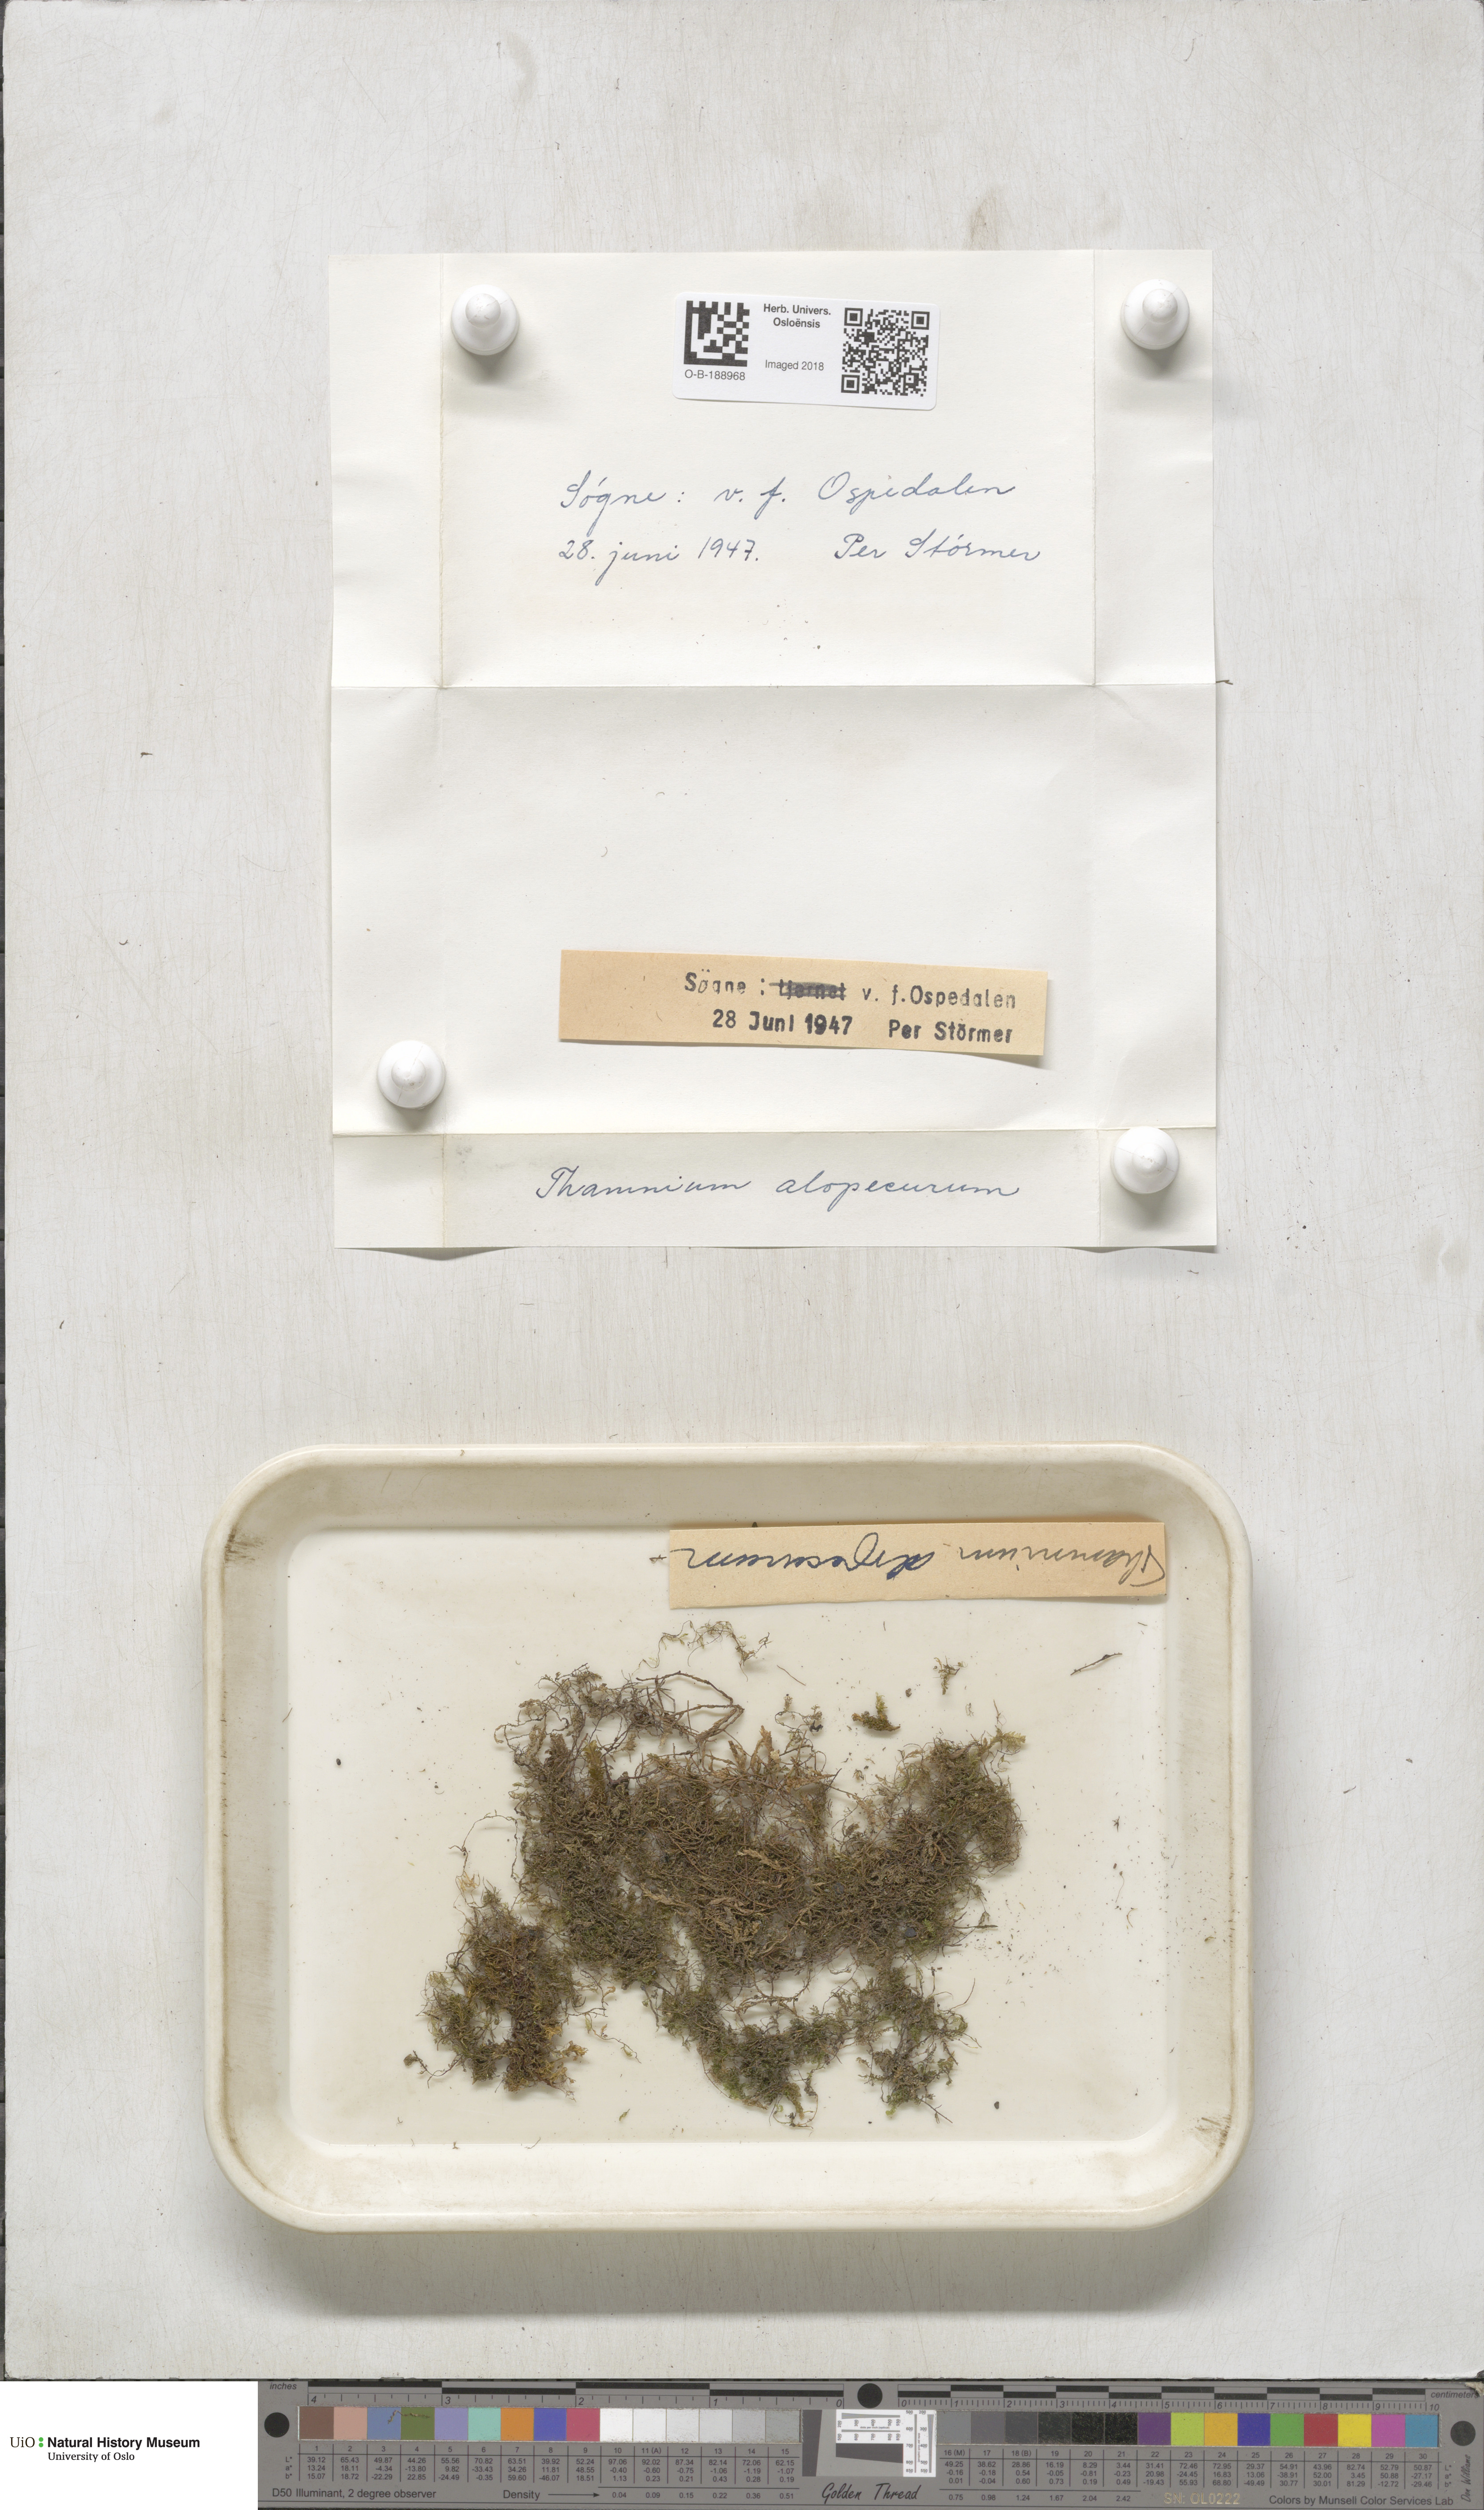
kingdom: Plantae
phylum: Bryophyta
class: Bryopsida
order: Hypnales
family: Neckeraceae
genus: Thamnobryum
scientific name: Thamnobryum alopecurum
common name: Fox-tail feather-moss
